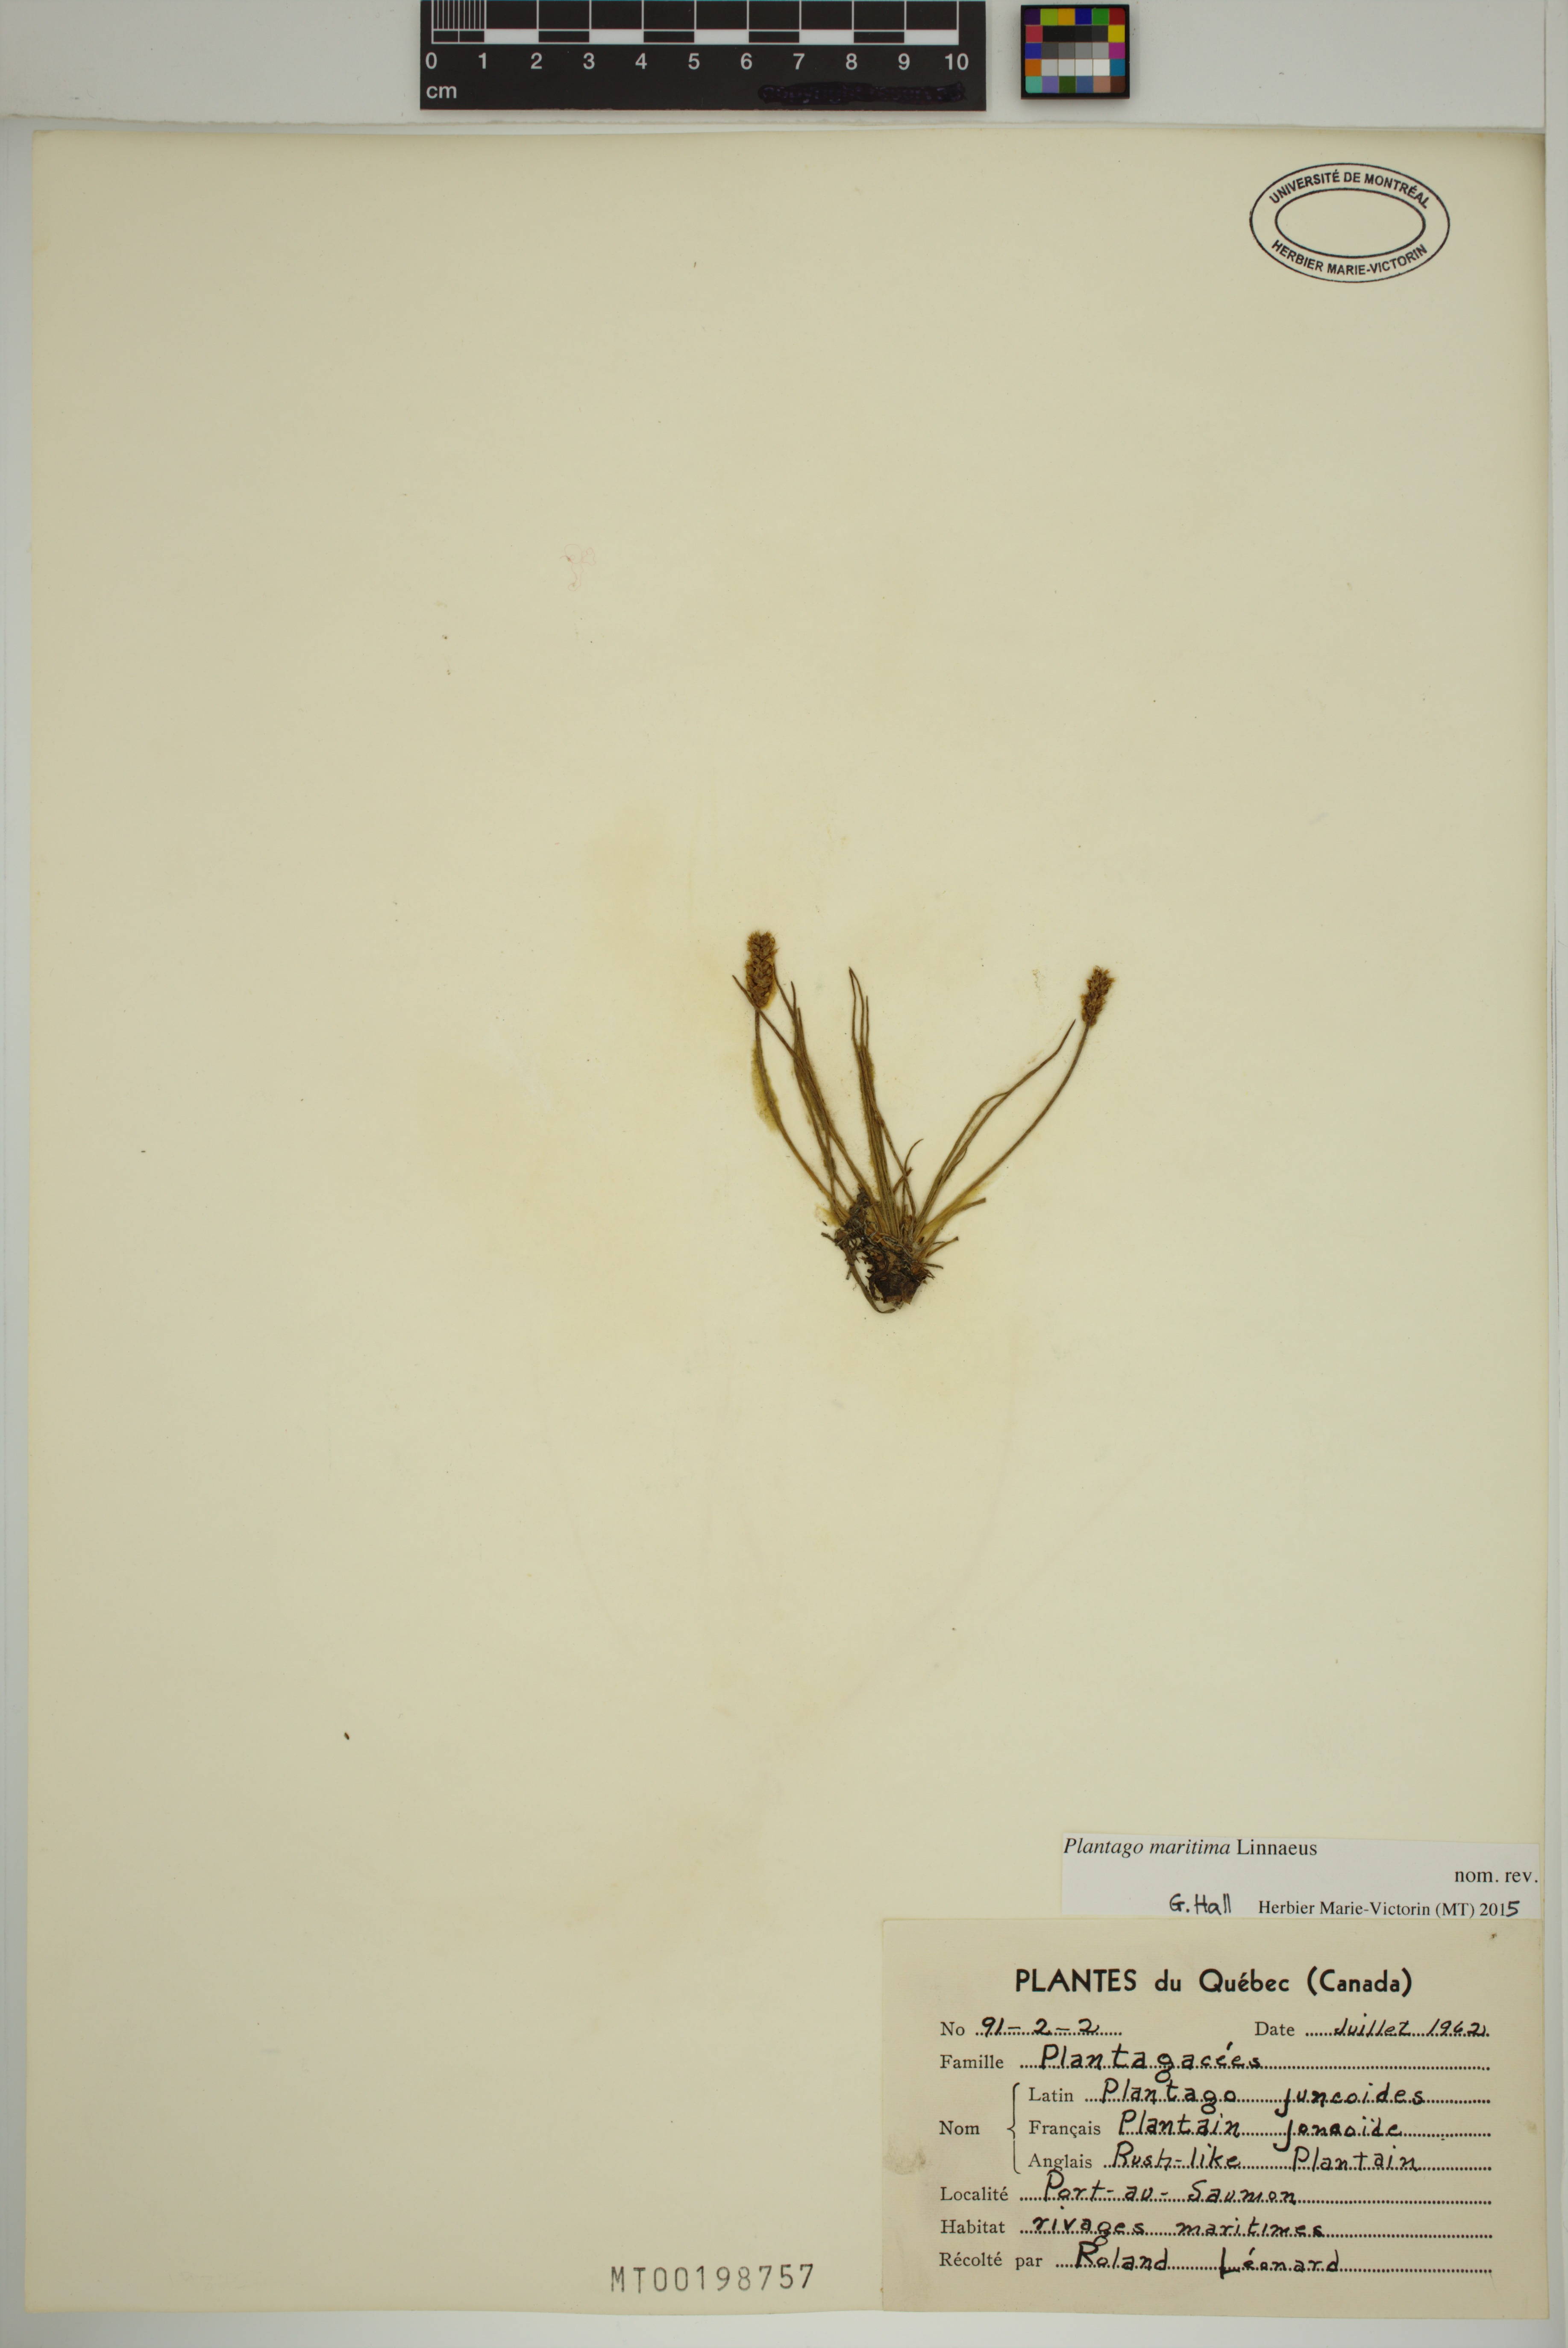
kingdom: Plantae
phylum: Tracheophyta
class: Magnoliopsida
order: Lamiales
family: Plantaginaceae
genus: Plantago
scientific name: Plantago maritima
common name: Sea plantain
